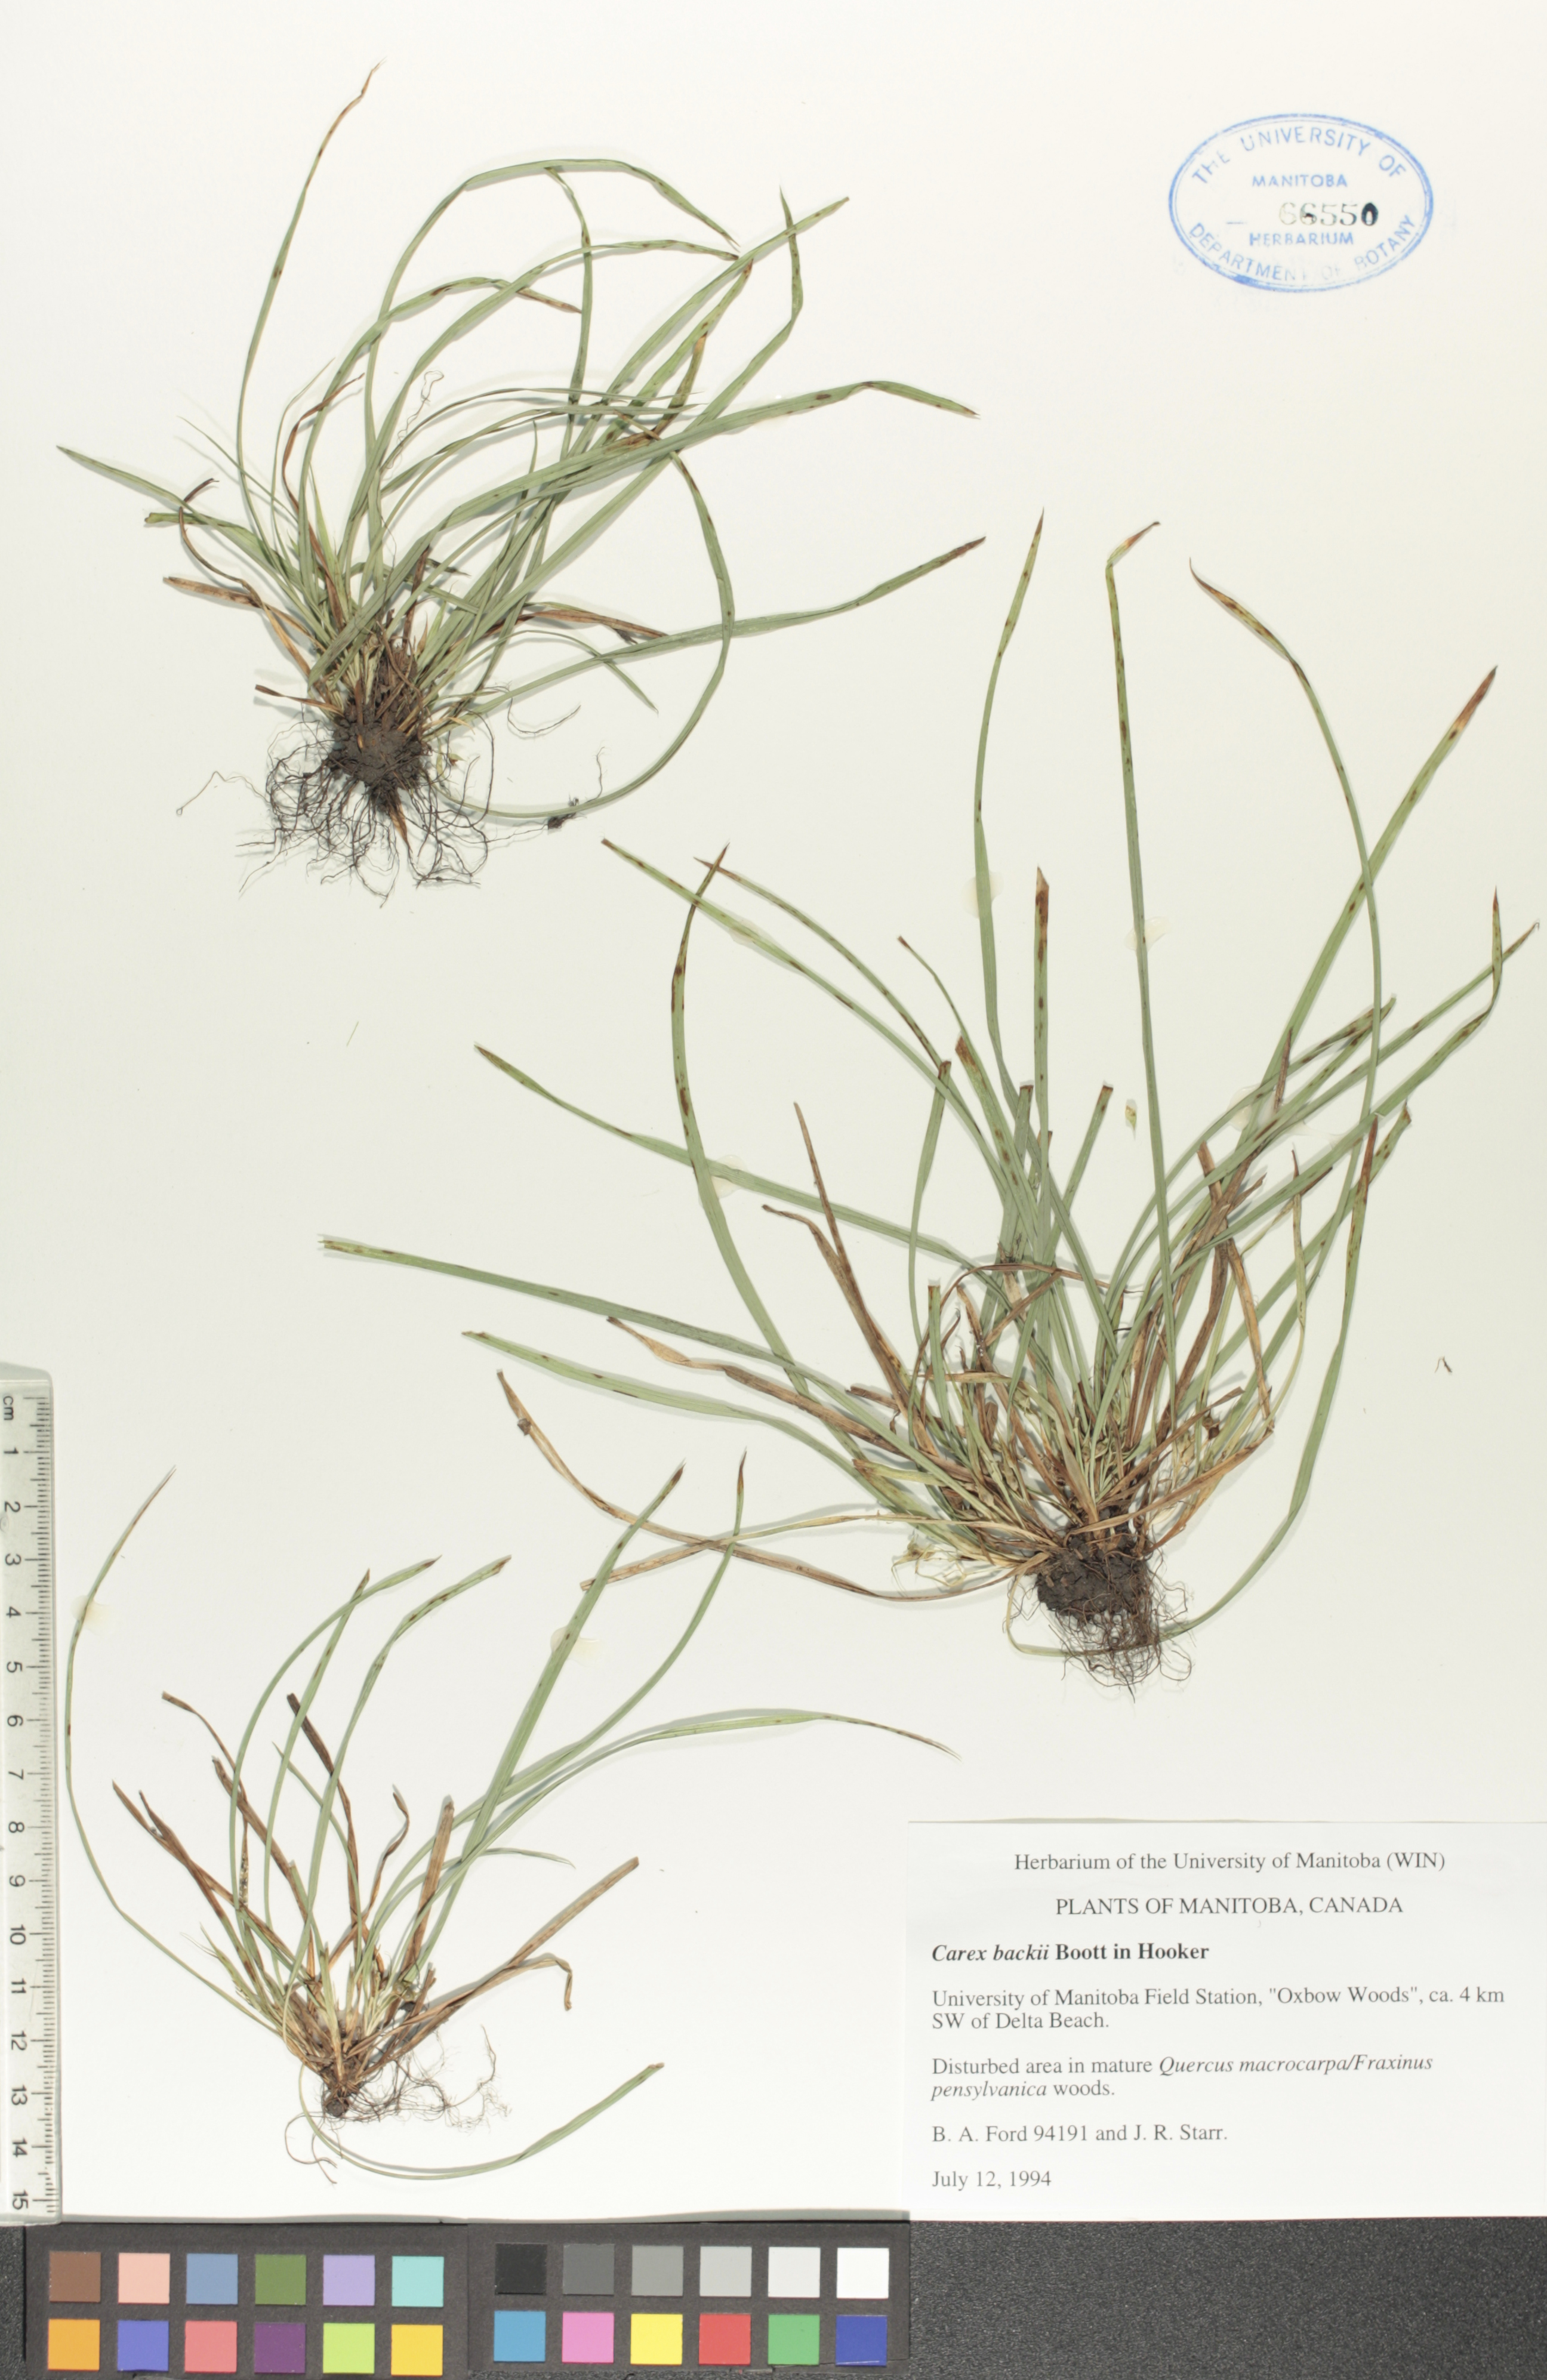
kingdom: Plantae
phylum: Tracheophyta
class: Liliopsida
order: Poales
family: Cyperaceae
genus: Carex
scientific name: Carex backii
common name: Back's sedge
